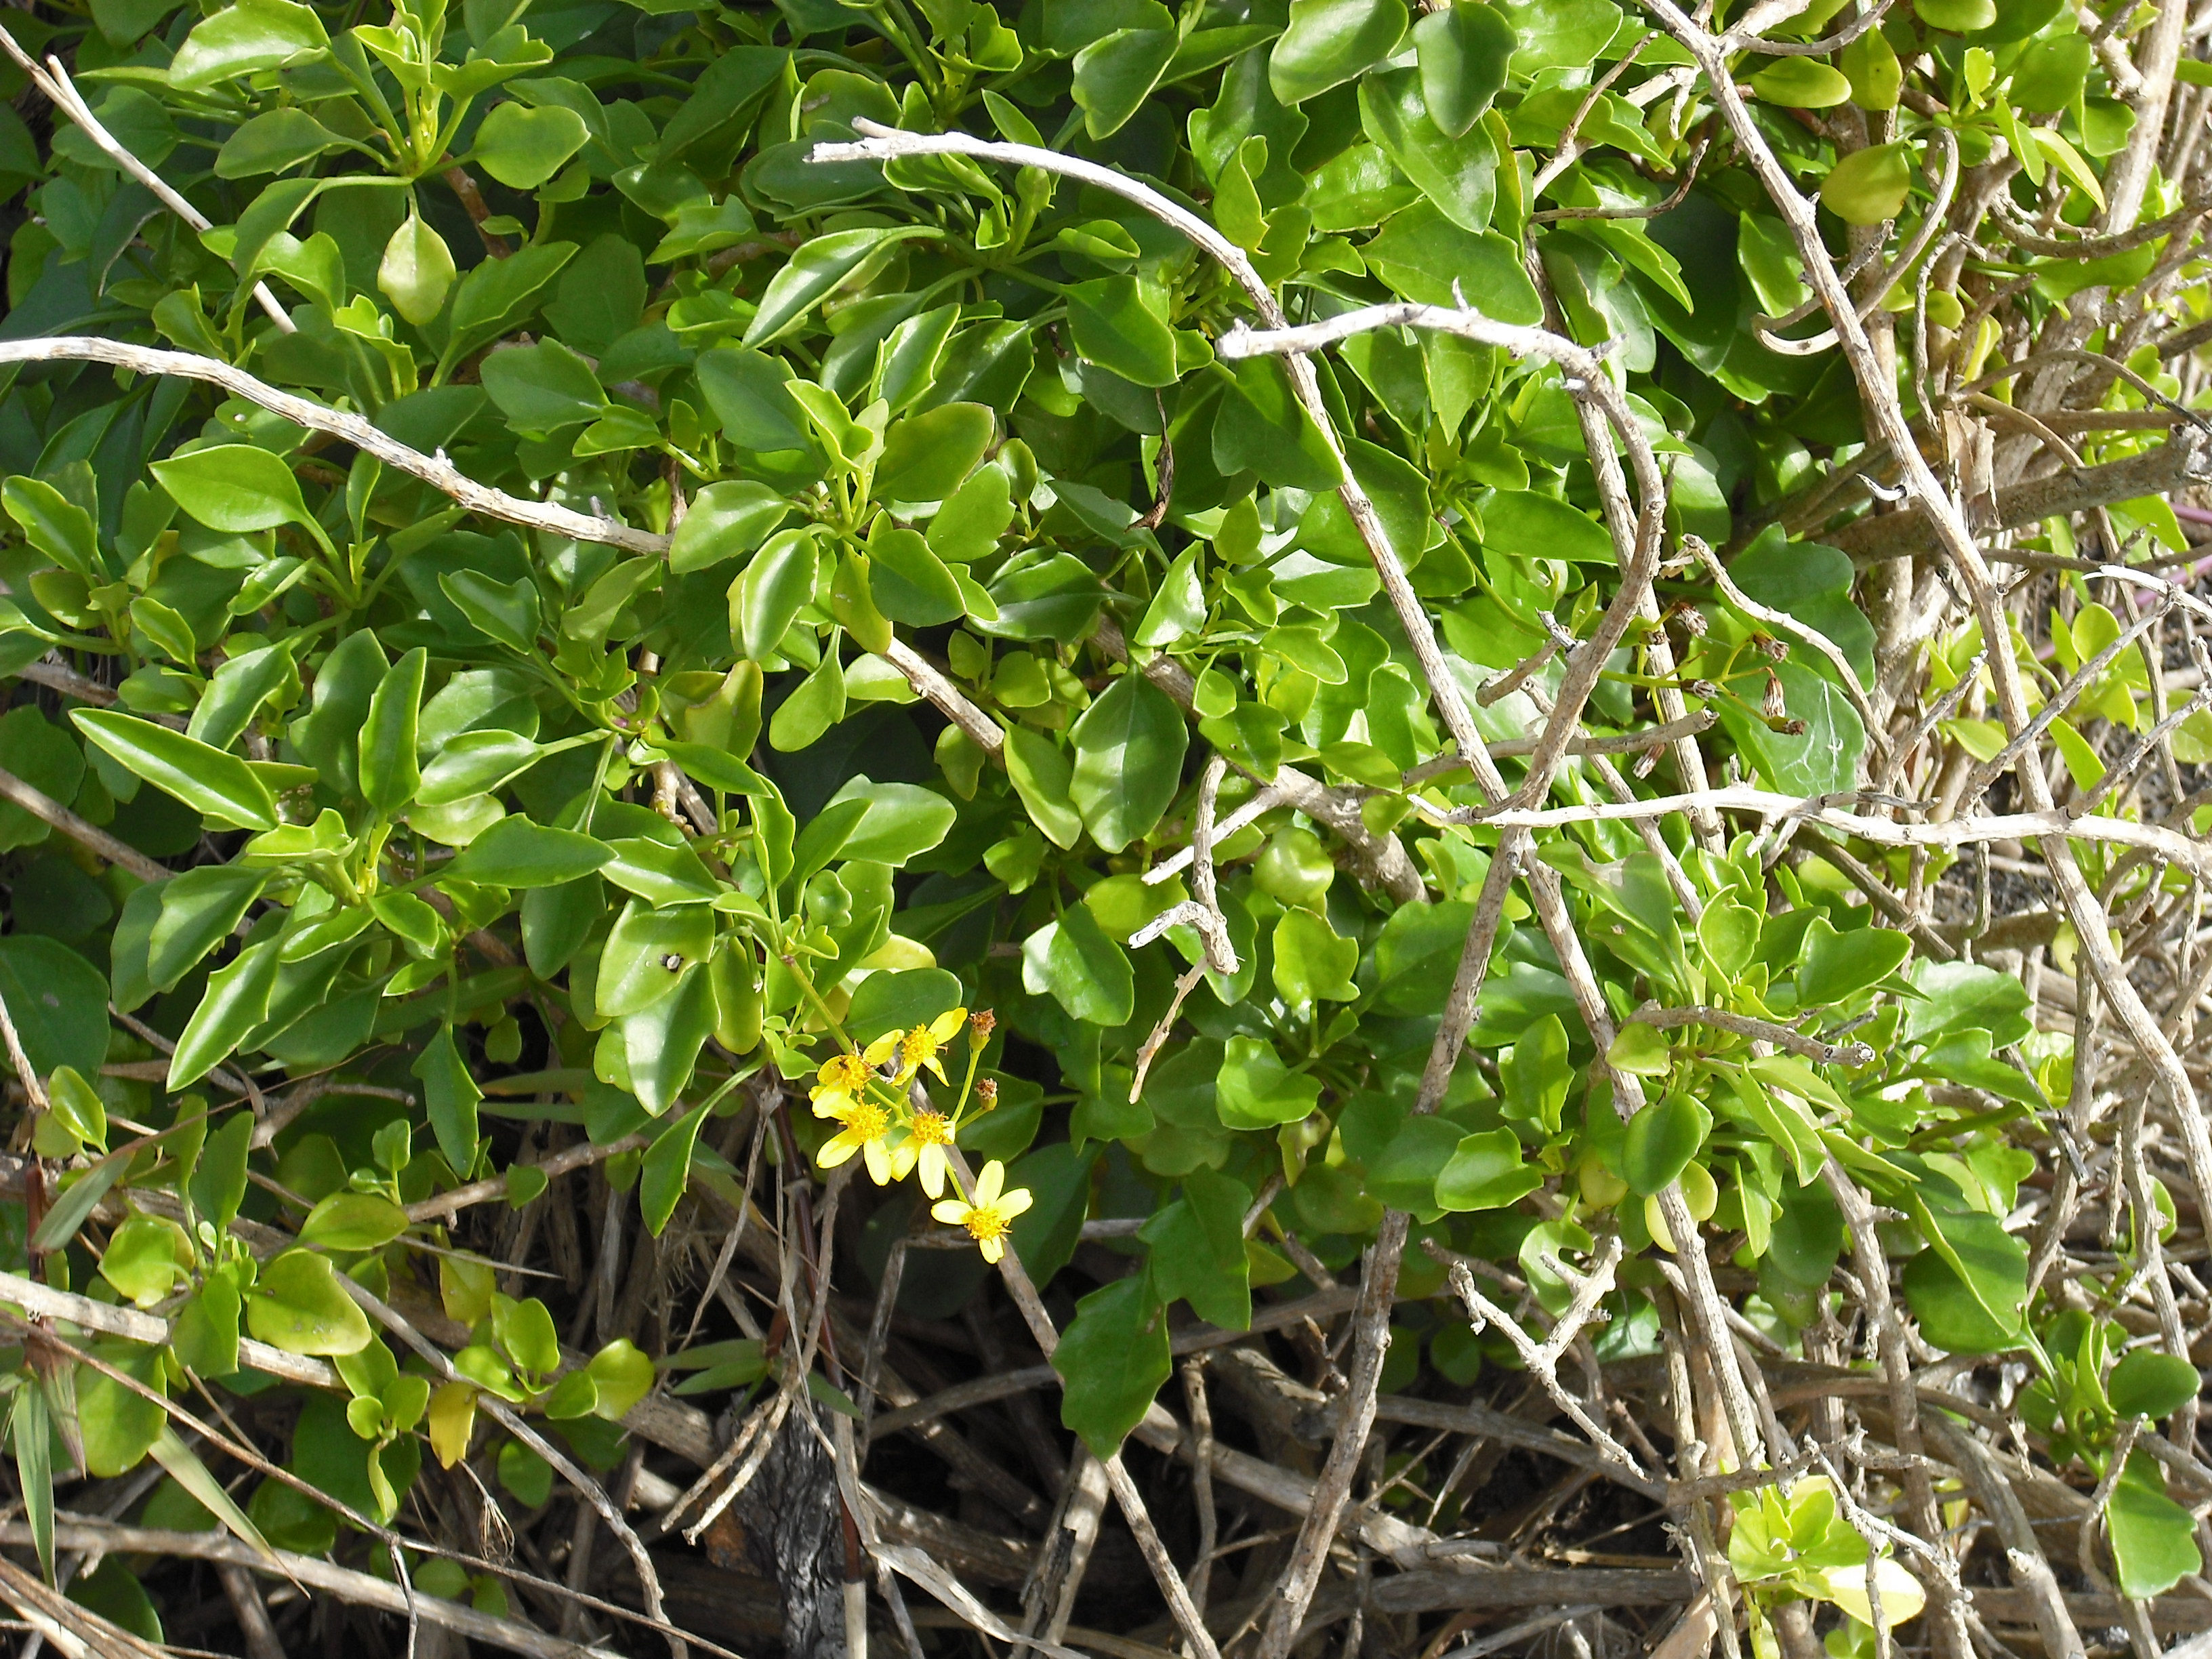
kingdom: Plantae
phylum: Tracheophyta
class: Magnoliopsida
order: Asterales
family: Asteraceae
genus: Senecio
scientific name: Senecio angulatus
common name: Climbing groundsel
